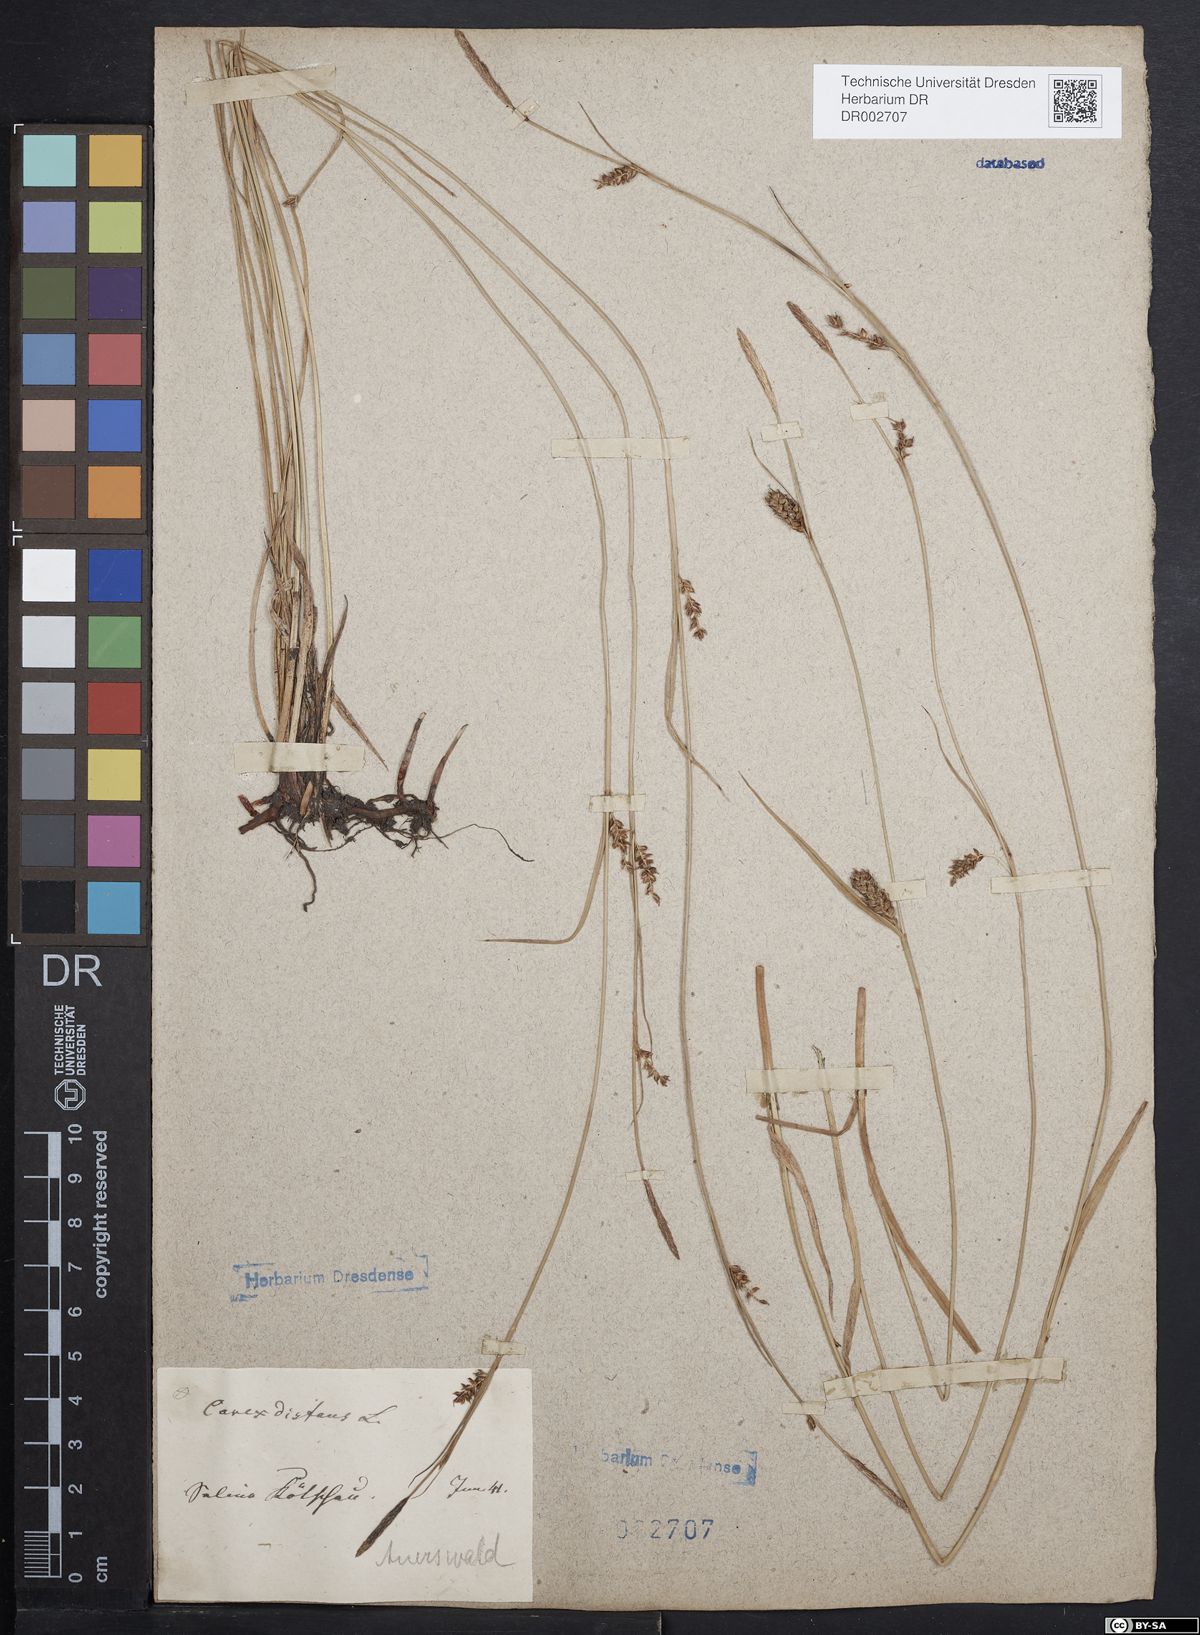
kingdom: Plantae
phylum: Tracheophyta
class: Liliopsida
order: Poales
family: Cyperaceae
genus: Carex
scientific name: Carex distans
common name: Distant sedge
